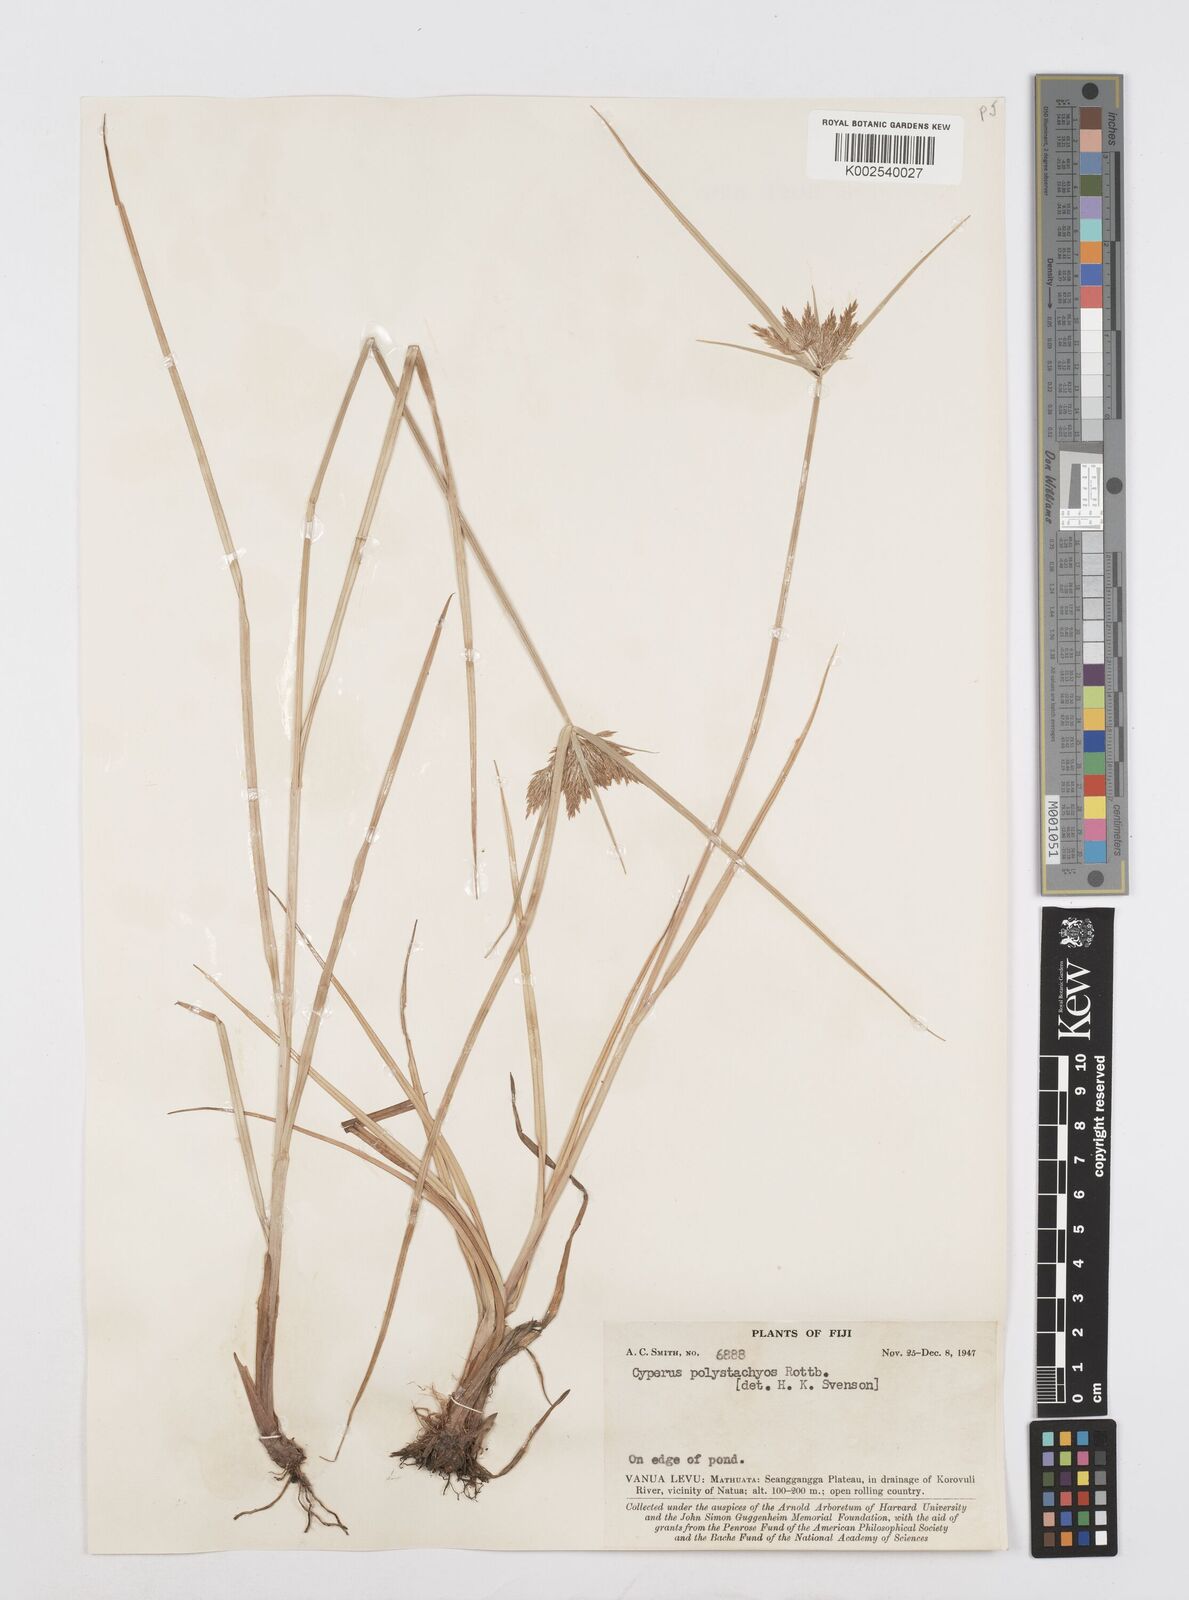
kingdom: Plantae
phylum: Tracheophyta
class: Liliopsida
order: Poales
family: Cyperaceae
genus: Cyperus
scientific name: Cyperus polystachyos
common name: Bunchy flat sedge
